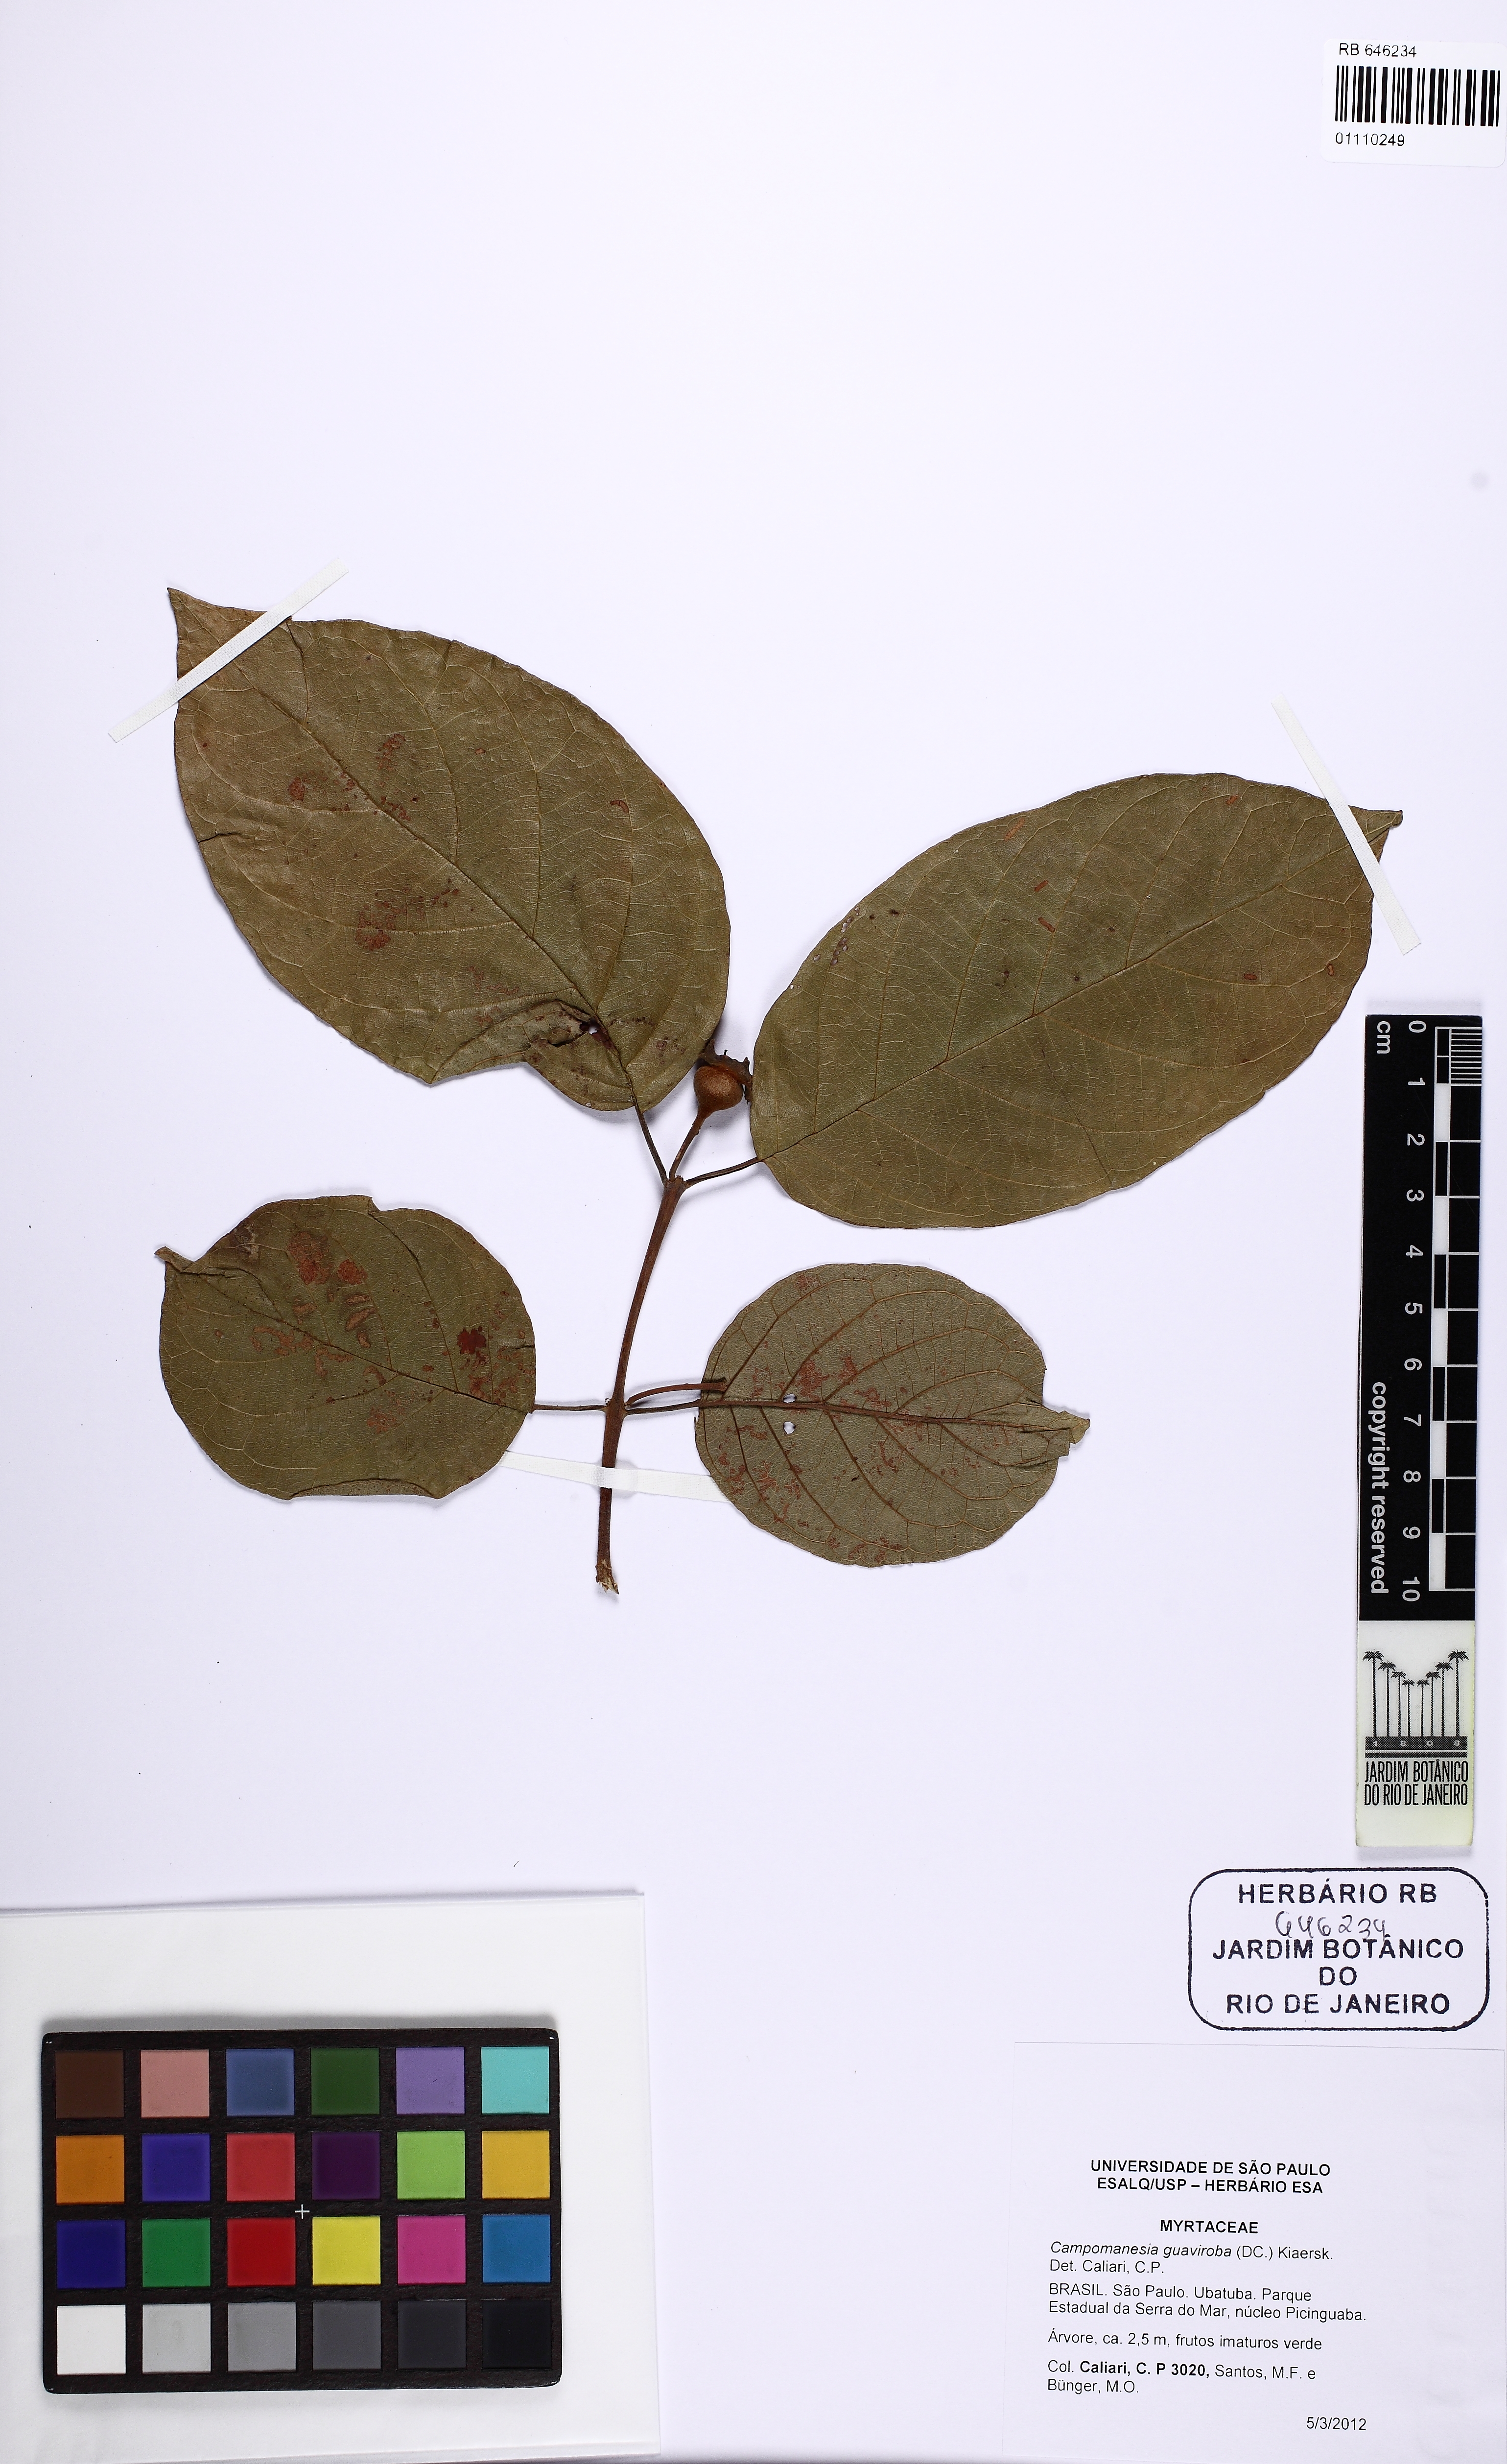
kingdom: Plantae
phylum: Tracheophyta
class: Magnoliopsida
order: Myrtales
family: Myrtaceae
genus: Campomanesia
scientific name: Campomanesia guaviroba
